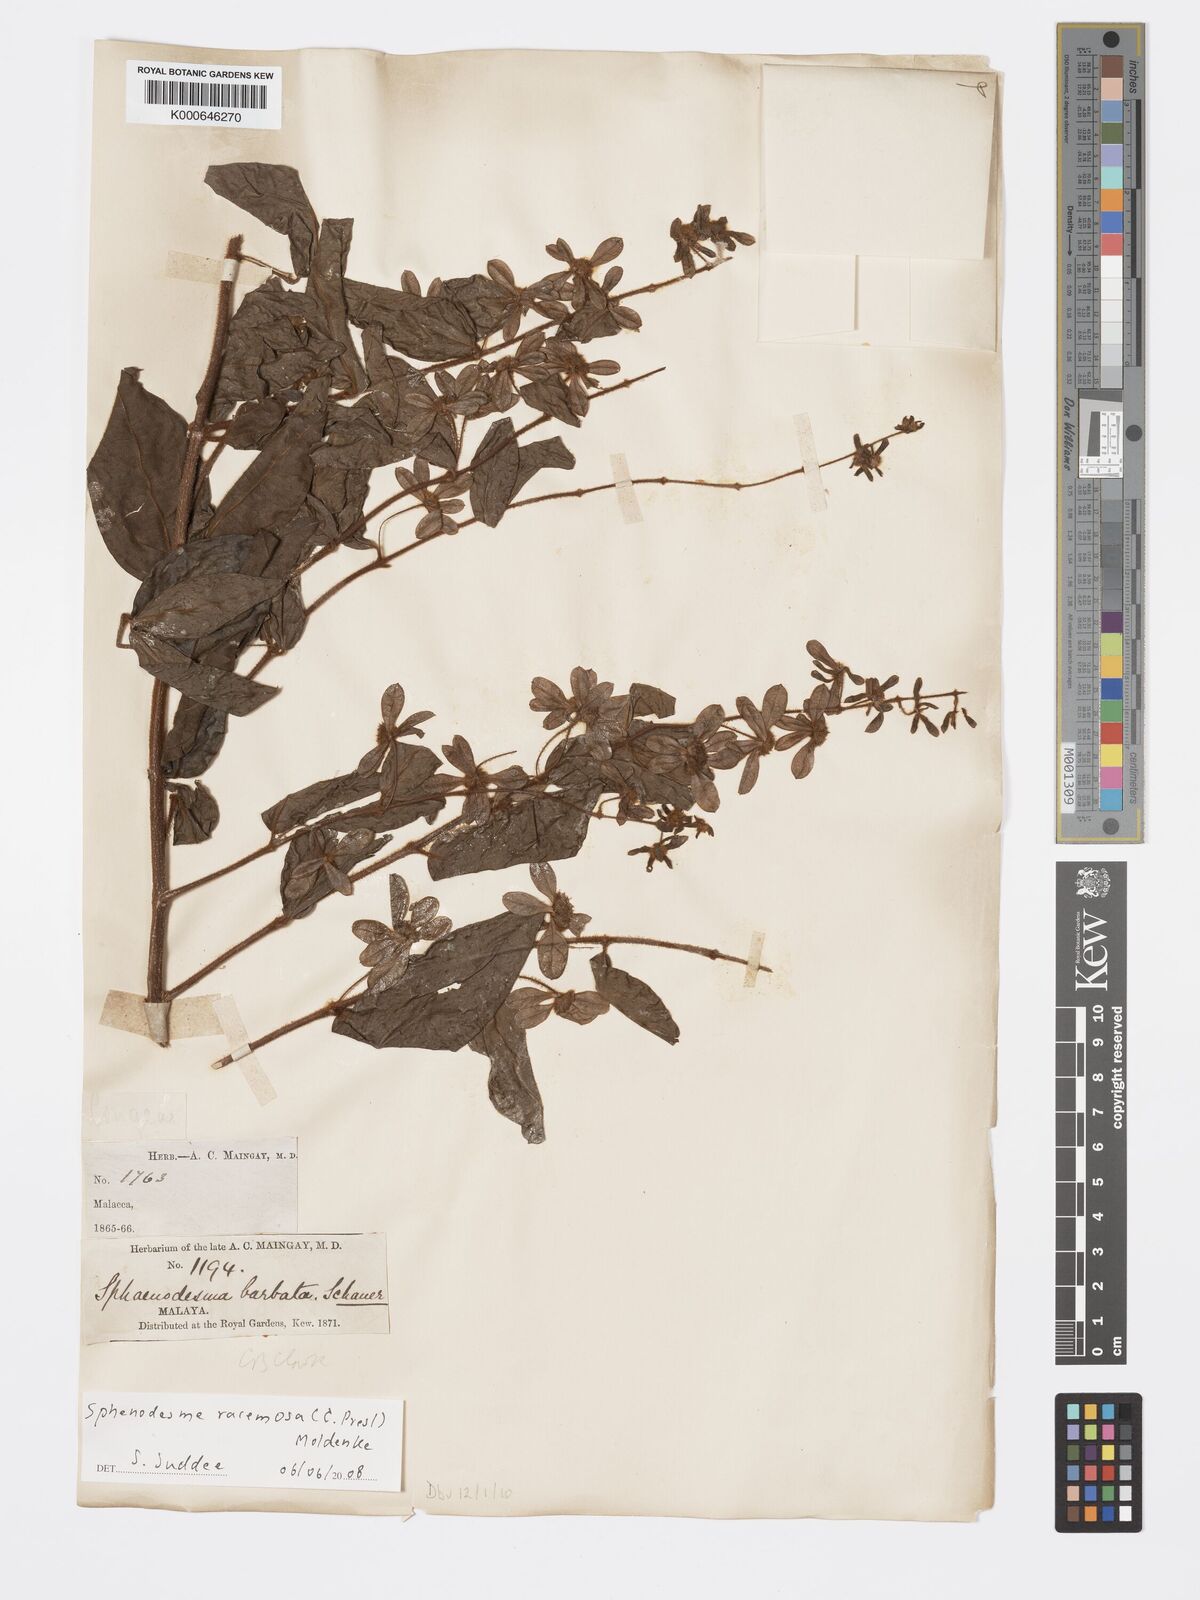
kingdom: Plantae
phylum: Tracheophyta
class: Magnoliopsida
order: Lamiales
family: Lamiaceae
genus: Sphenodesme
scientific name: Sphenodesme racemosa
